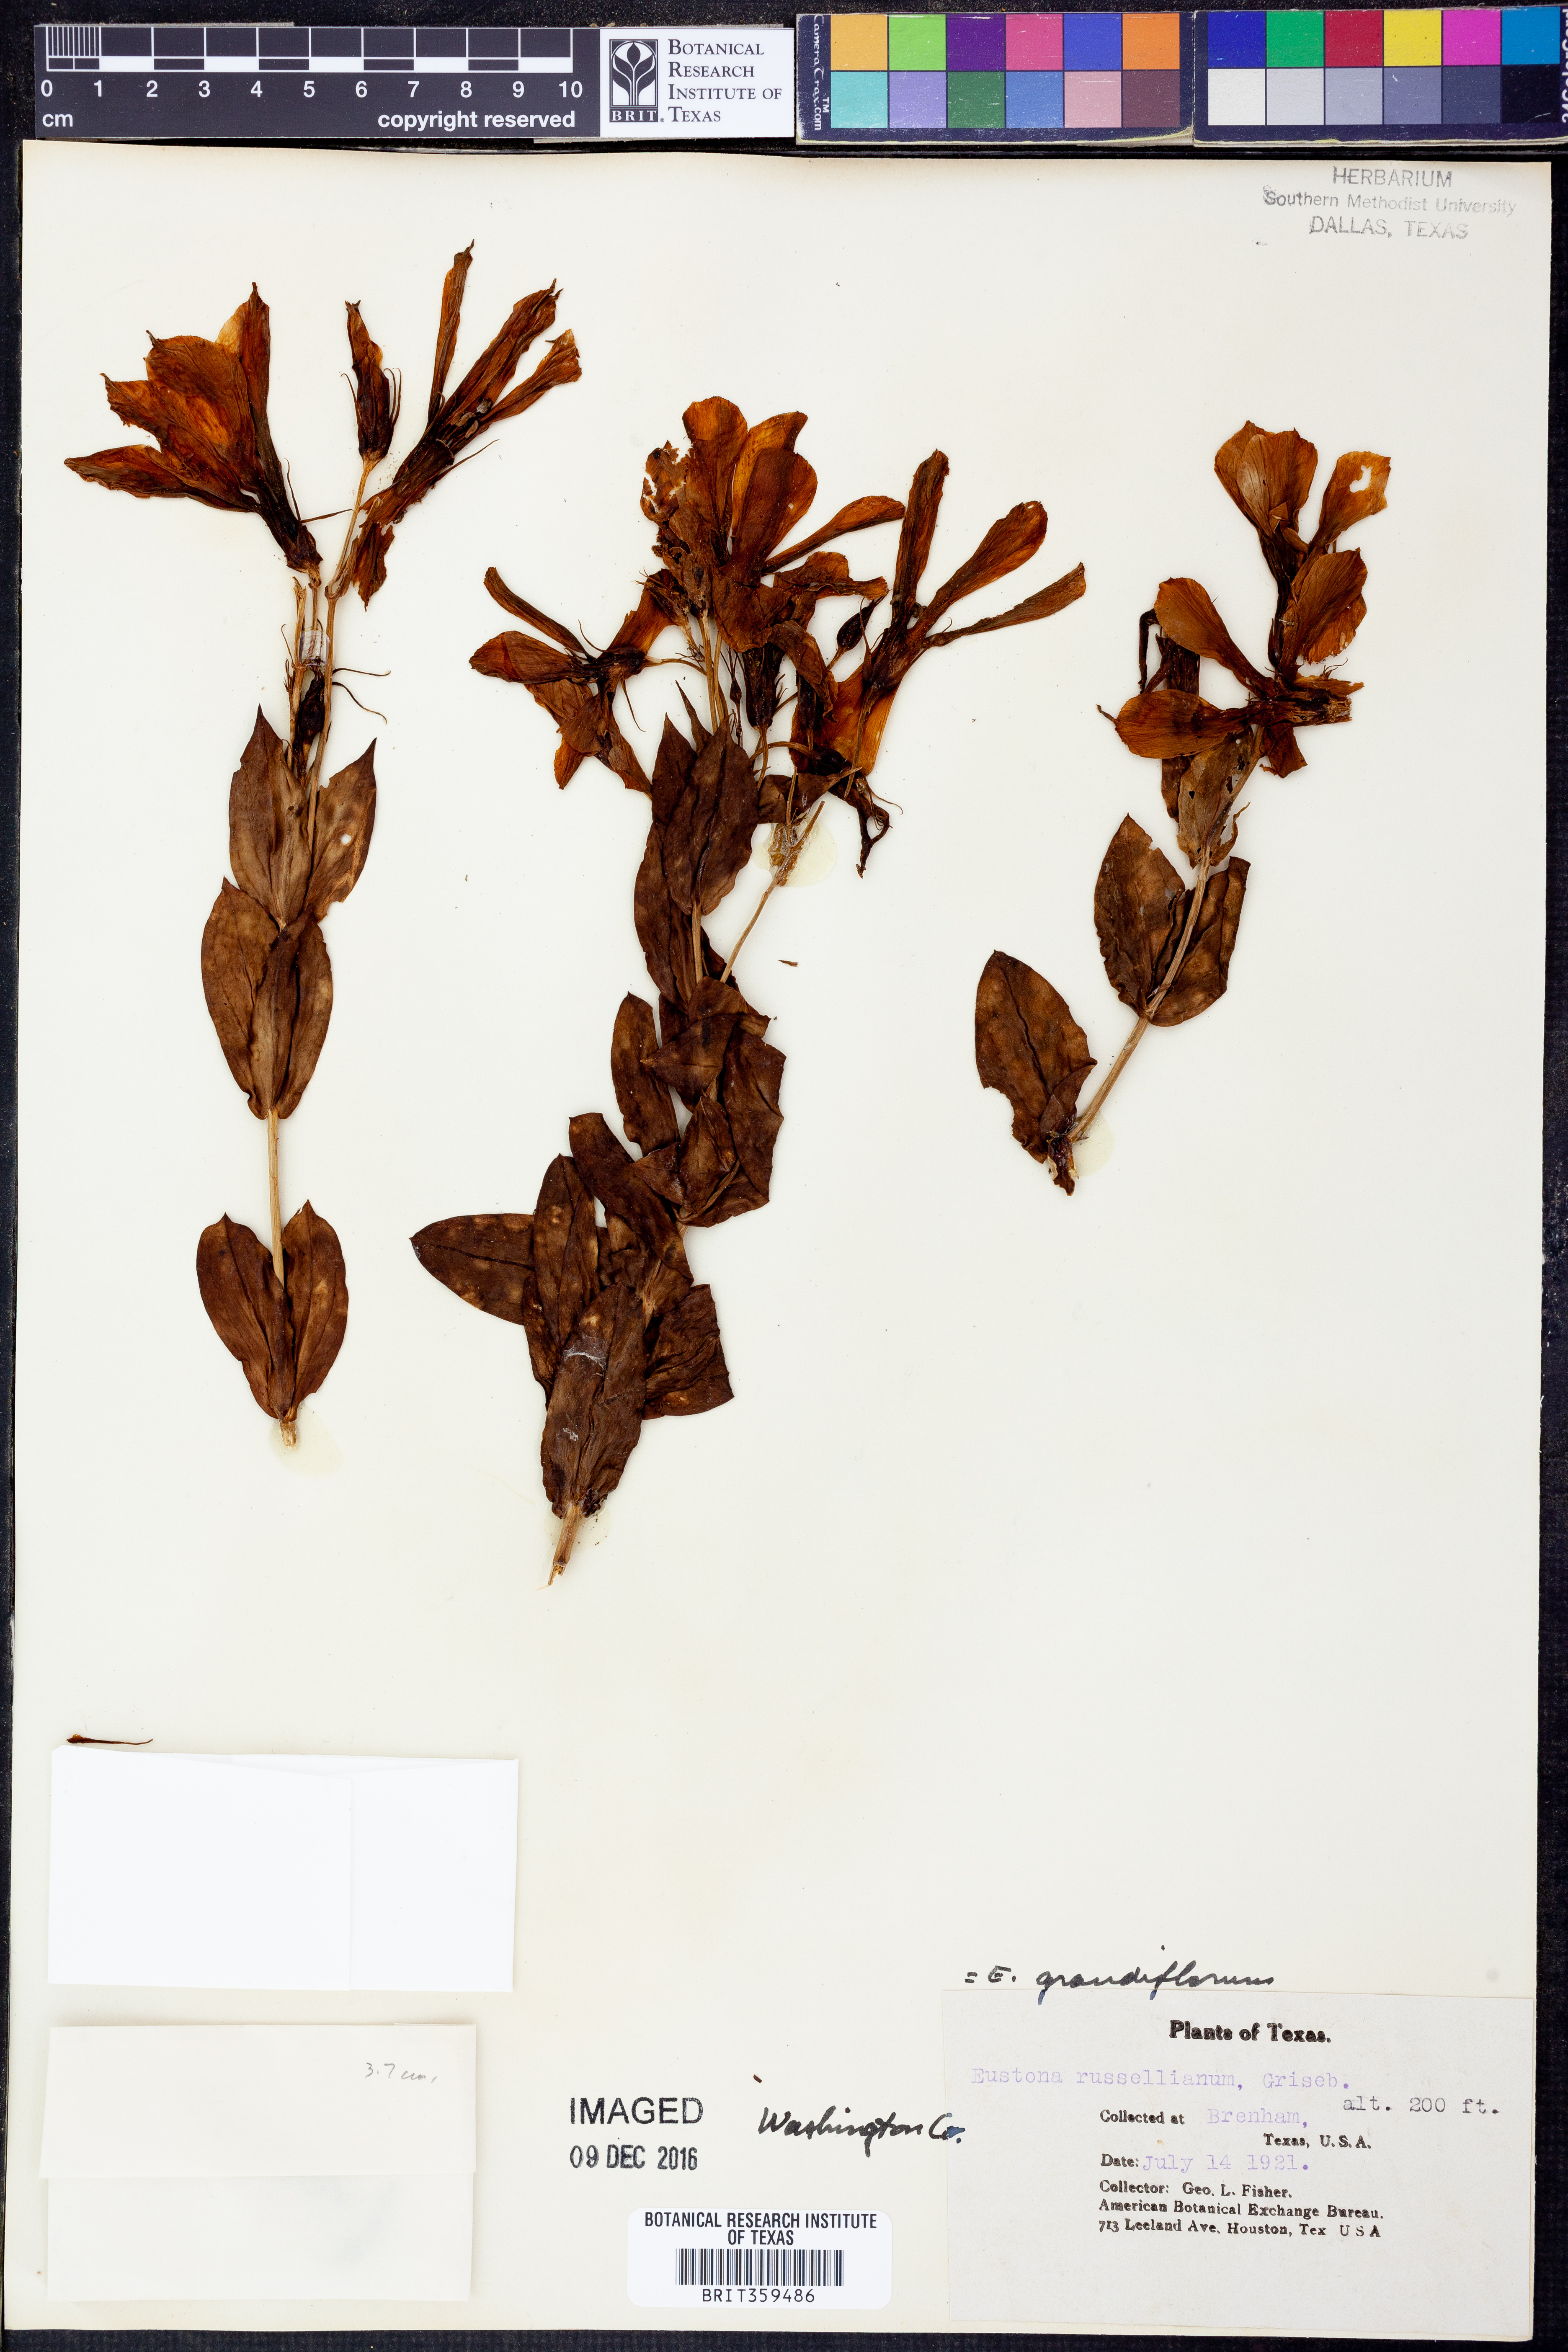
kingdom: Plantae
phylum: Tracheophyta
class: Magnoliopsida
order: Gentianales
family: Gentianaceae
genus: Eustoma
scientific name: Eustoma russellianum
